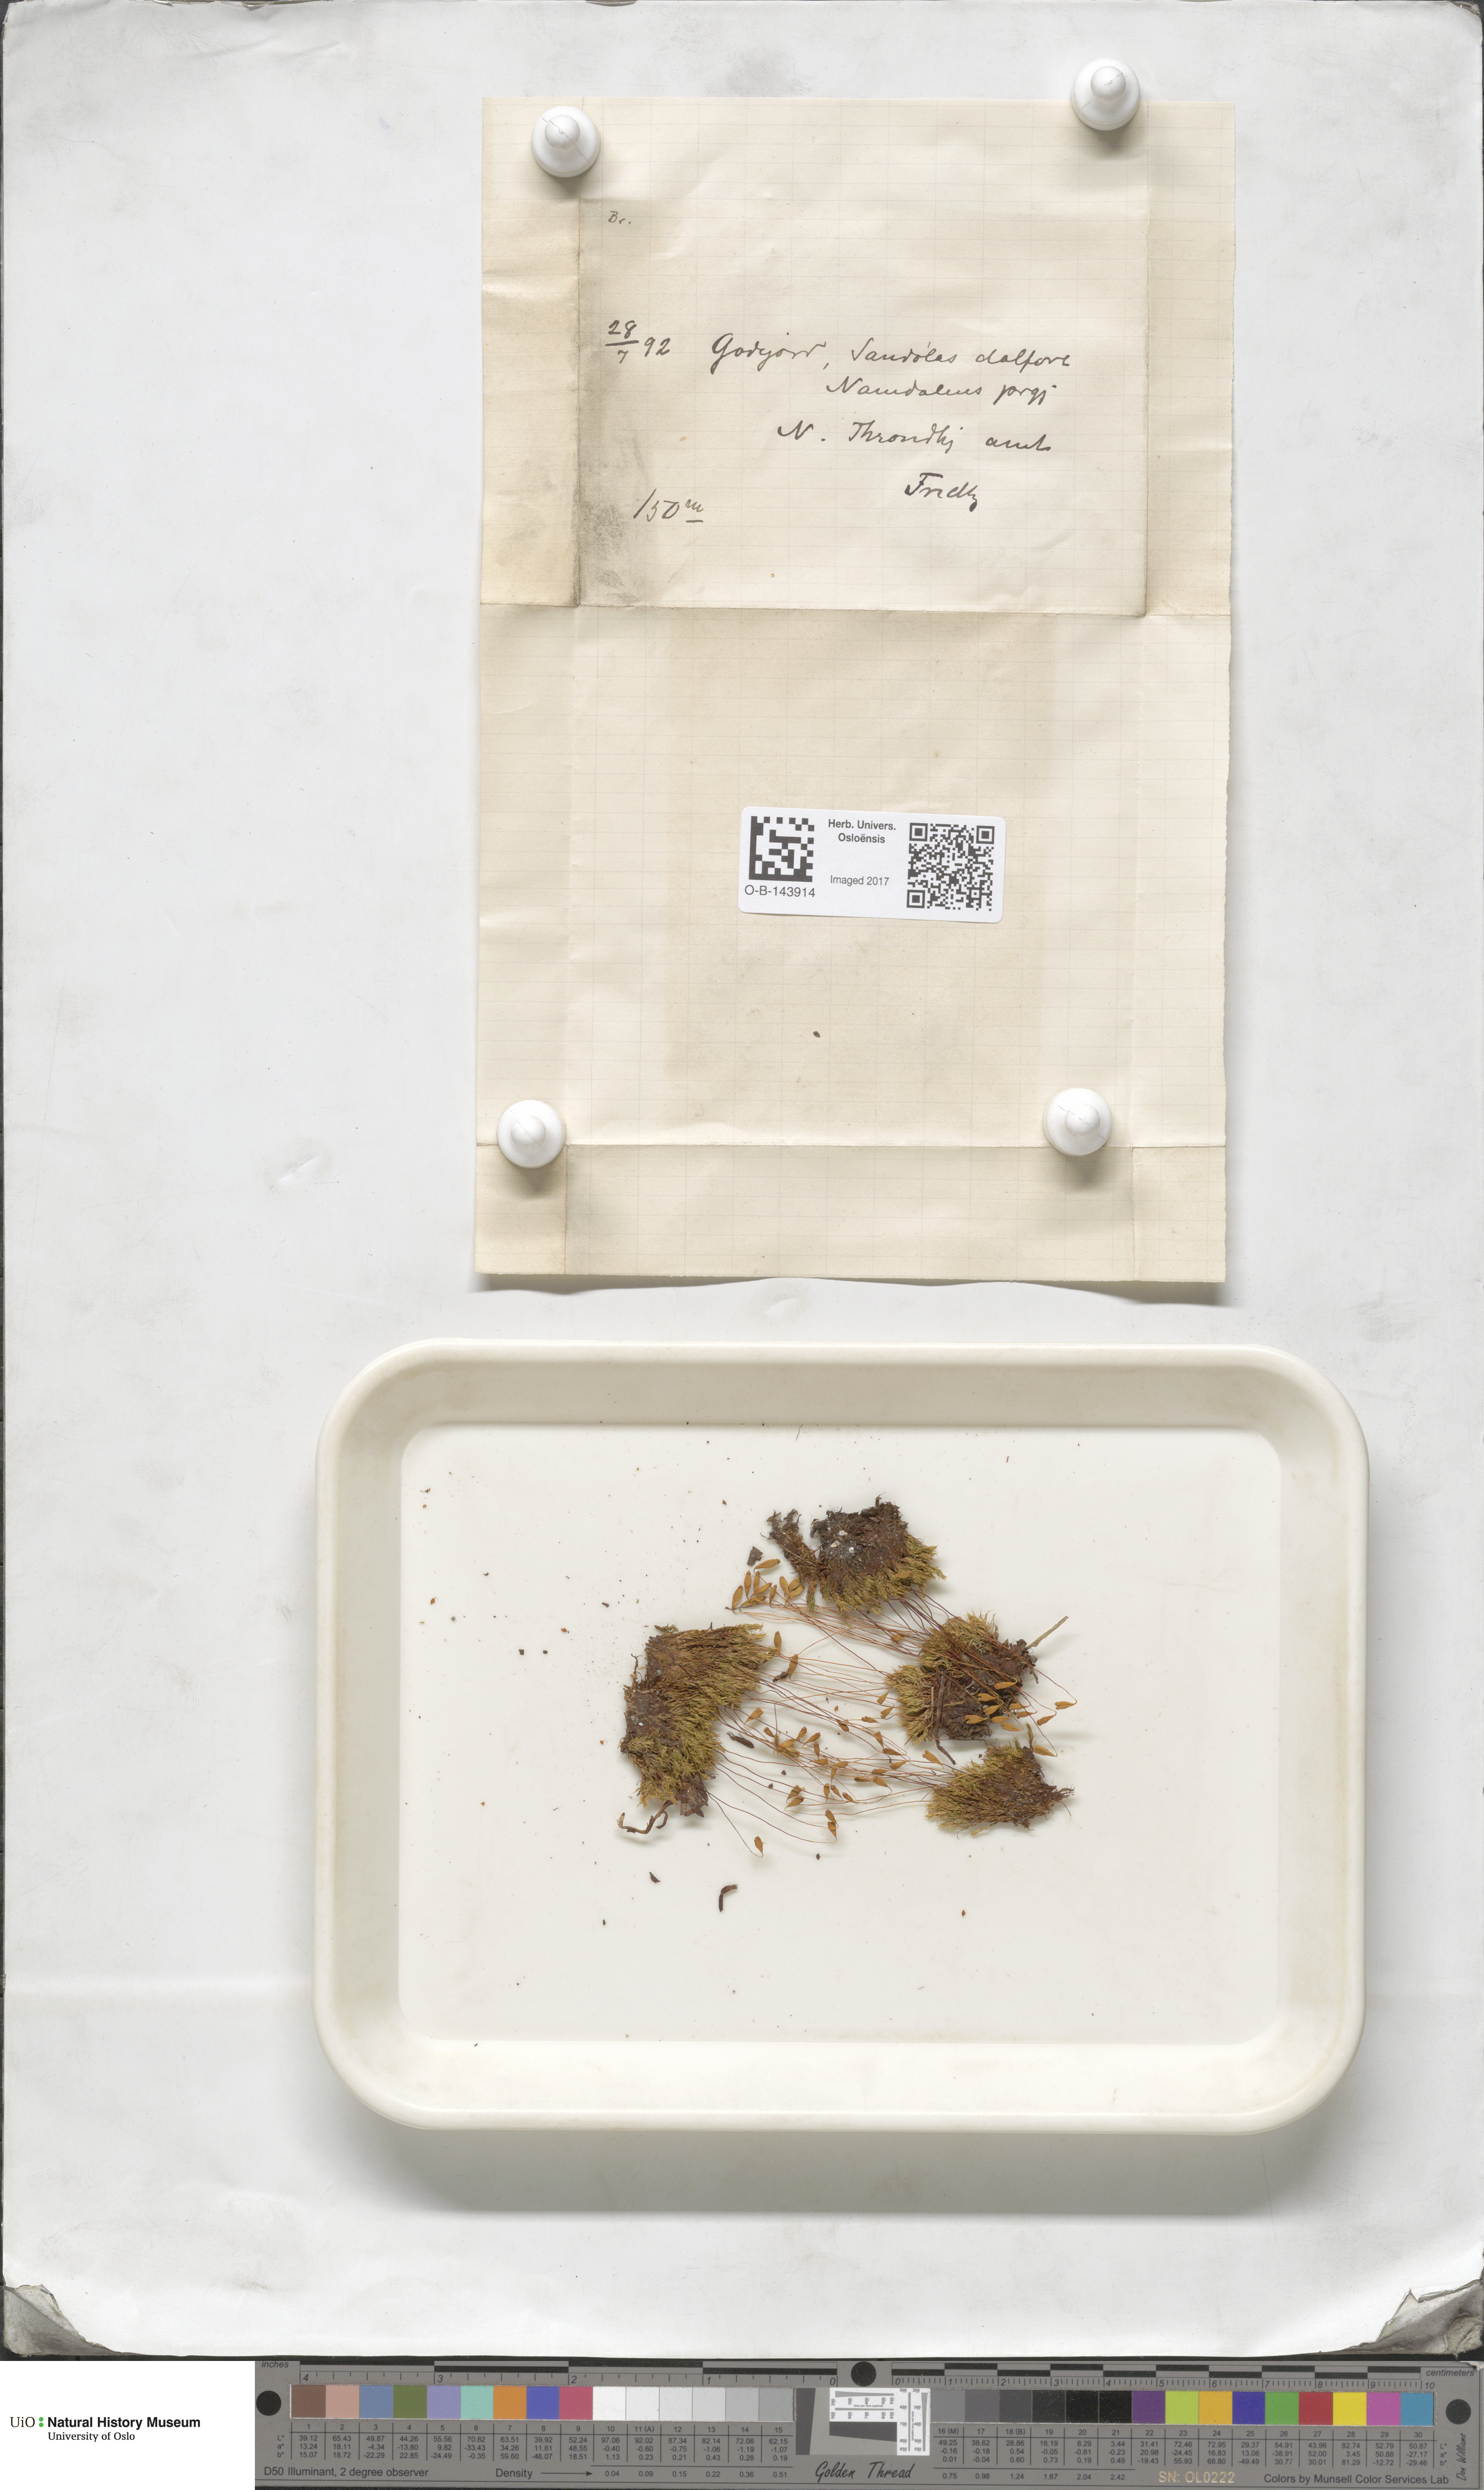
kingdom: Plantae
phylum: Bryophyta
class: Bryopsida
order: Bryales
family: Bryaceae
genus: Bryum
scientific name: Bryum
